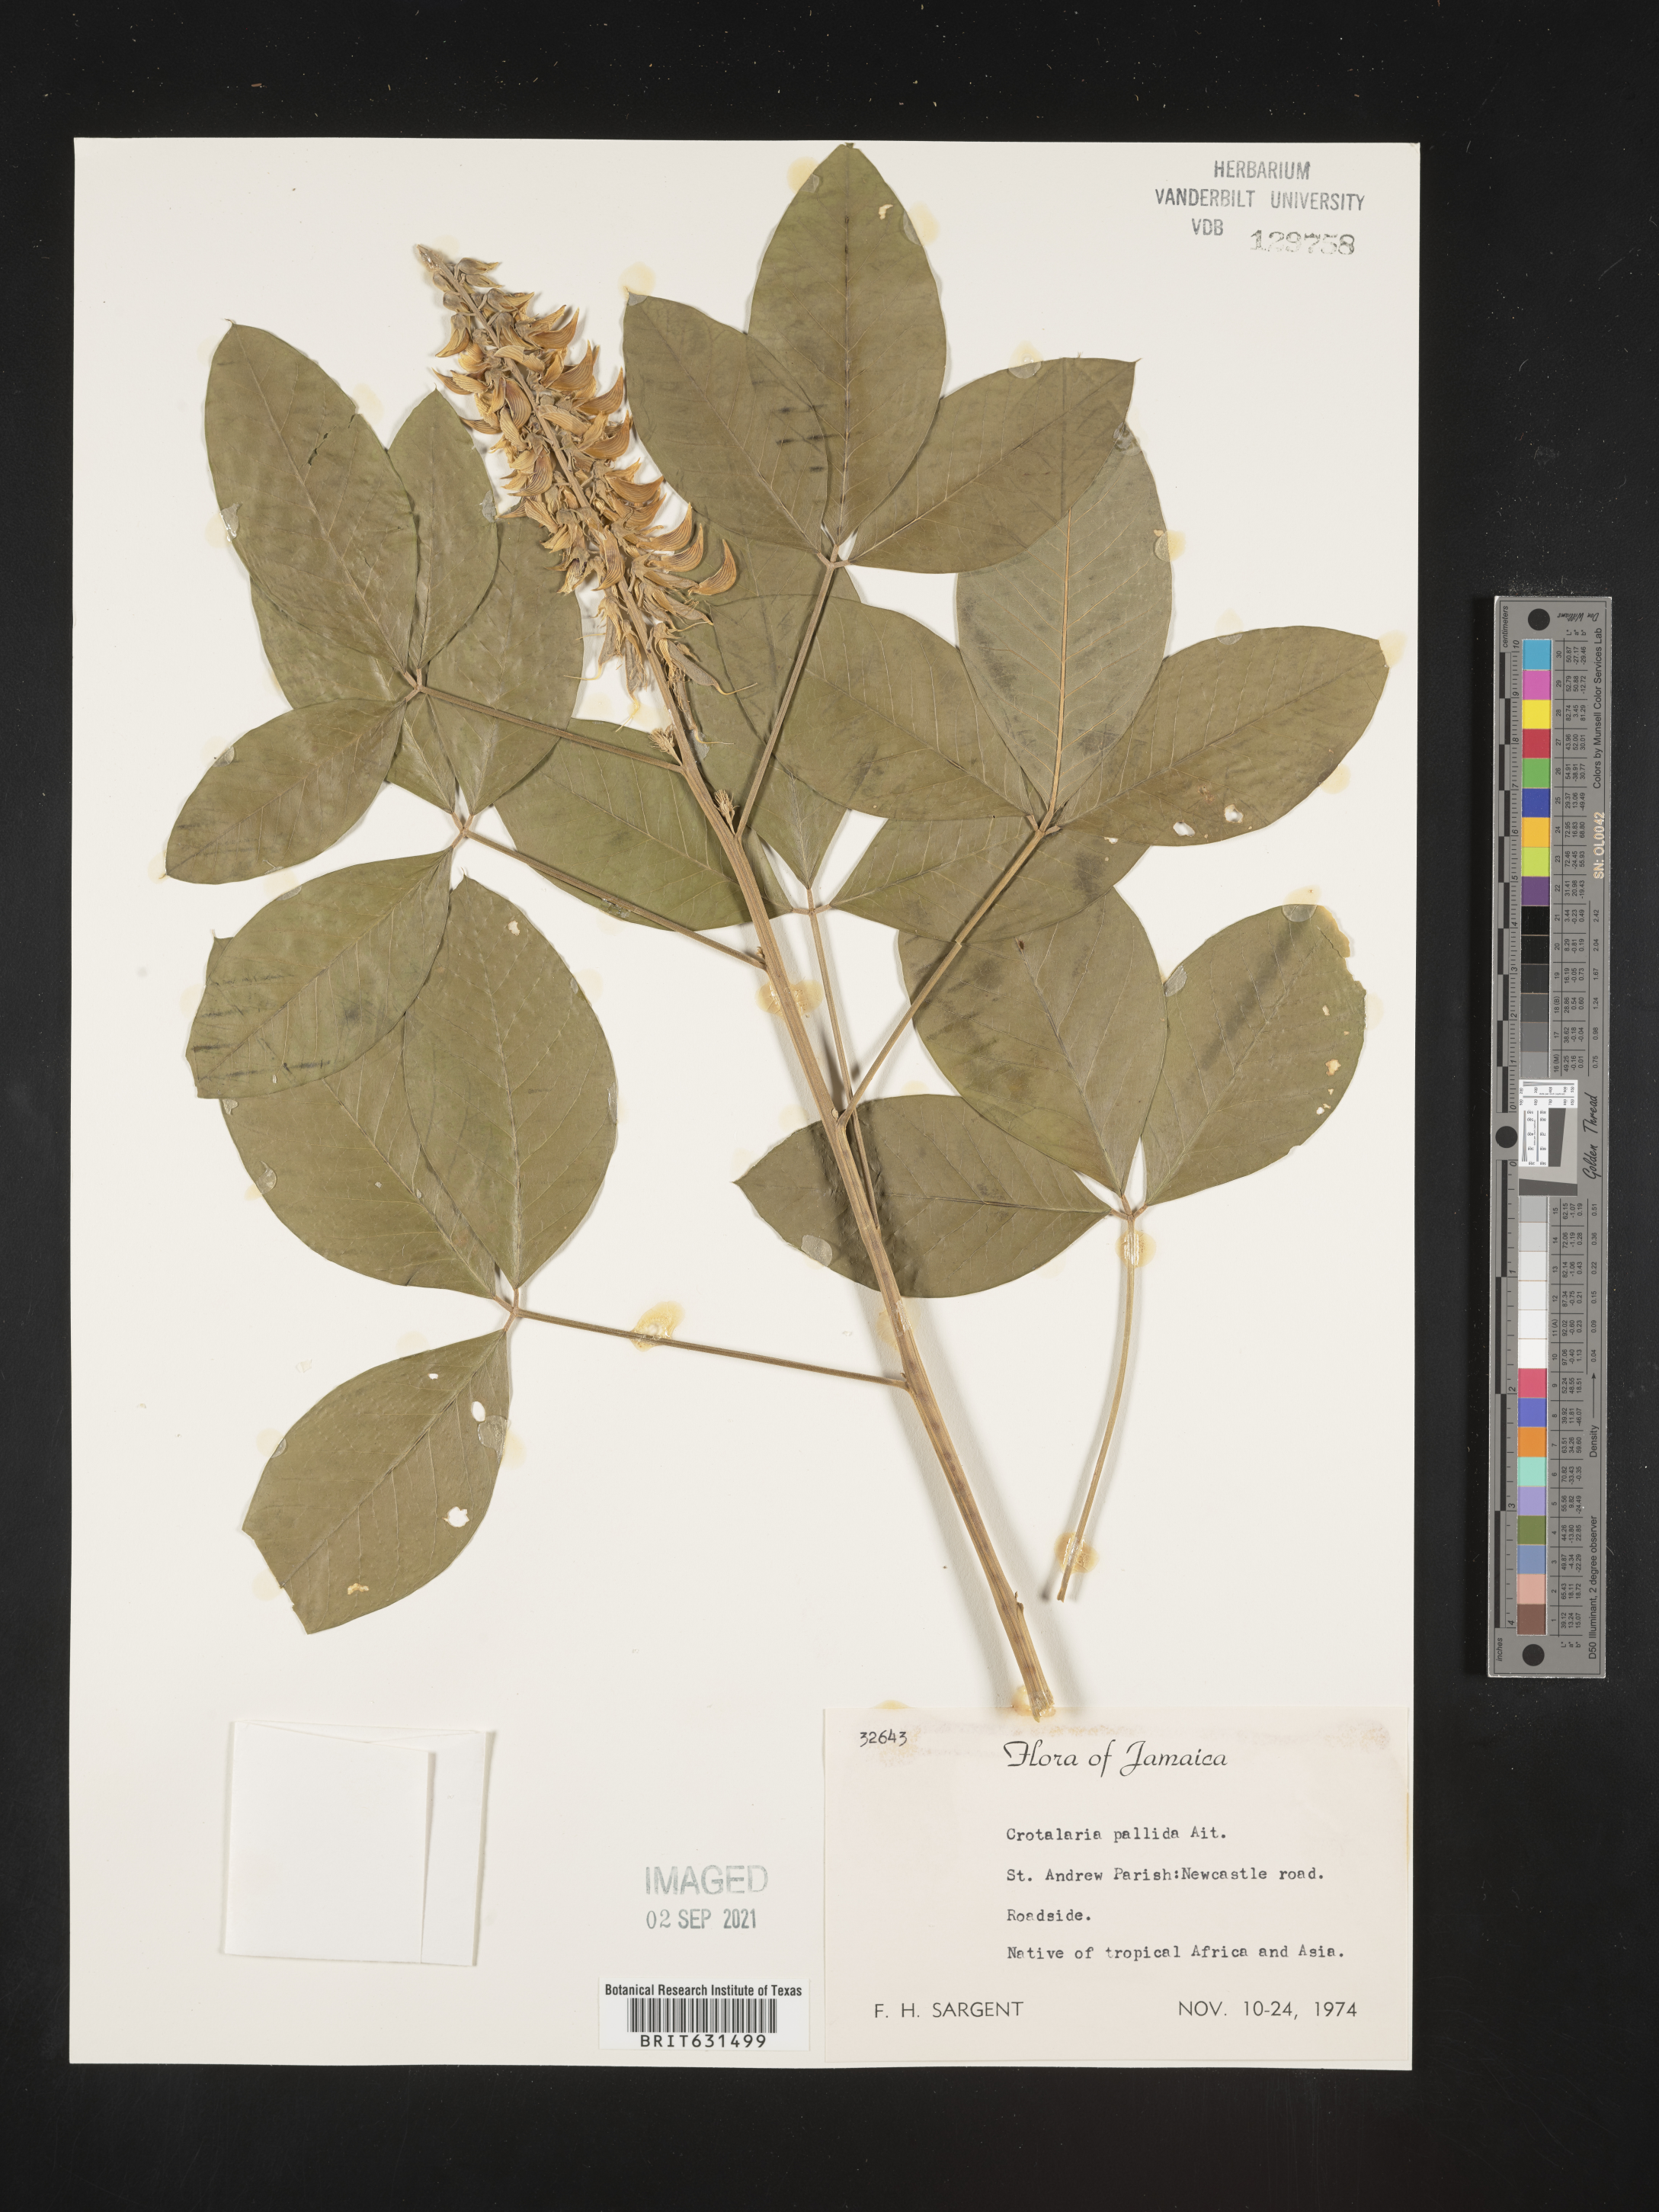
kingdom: Plantae
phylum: Tracheophyta
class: Magnoliopsida
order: Fabales
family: Fabaceae
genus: Crotalaria
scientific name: Crotalaria linifolia
